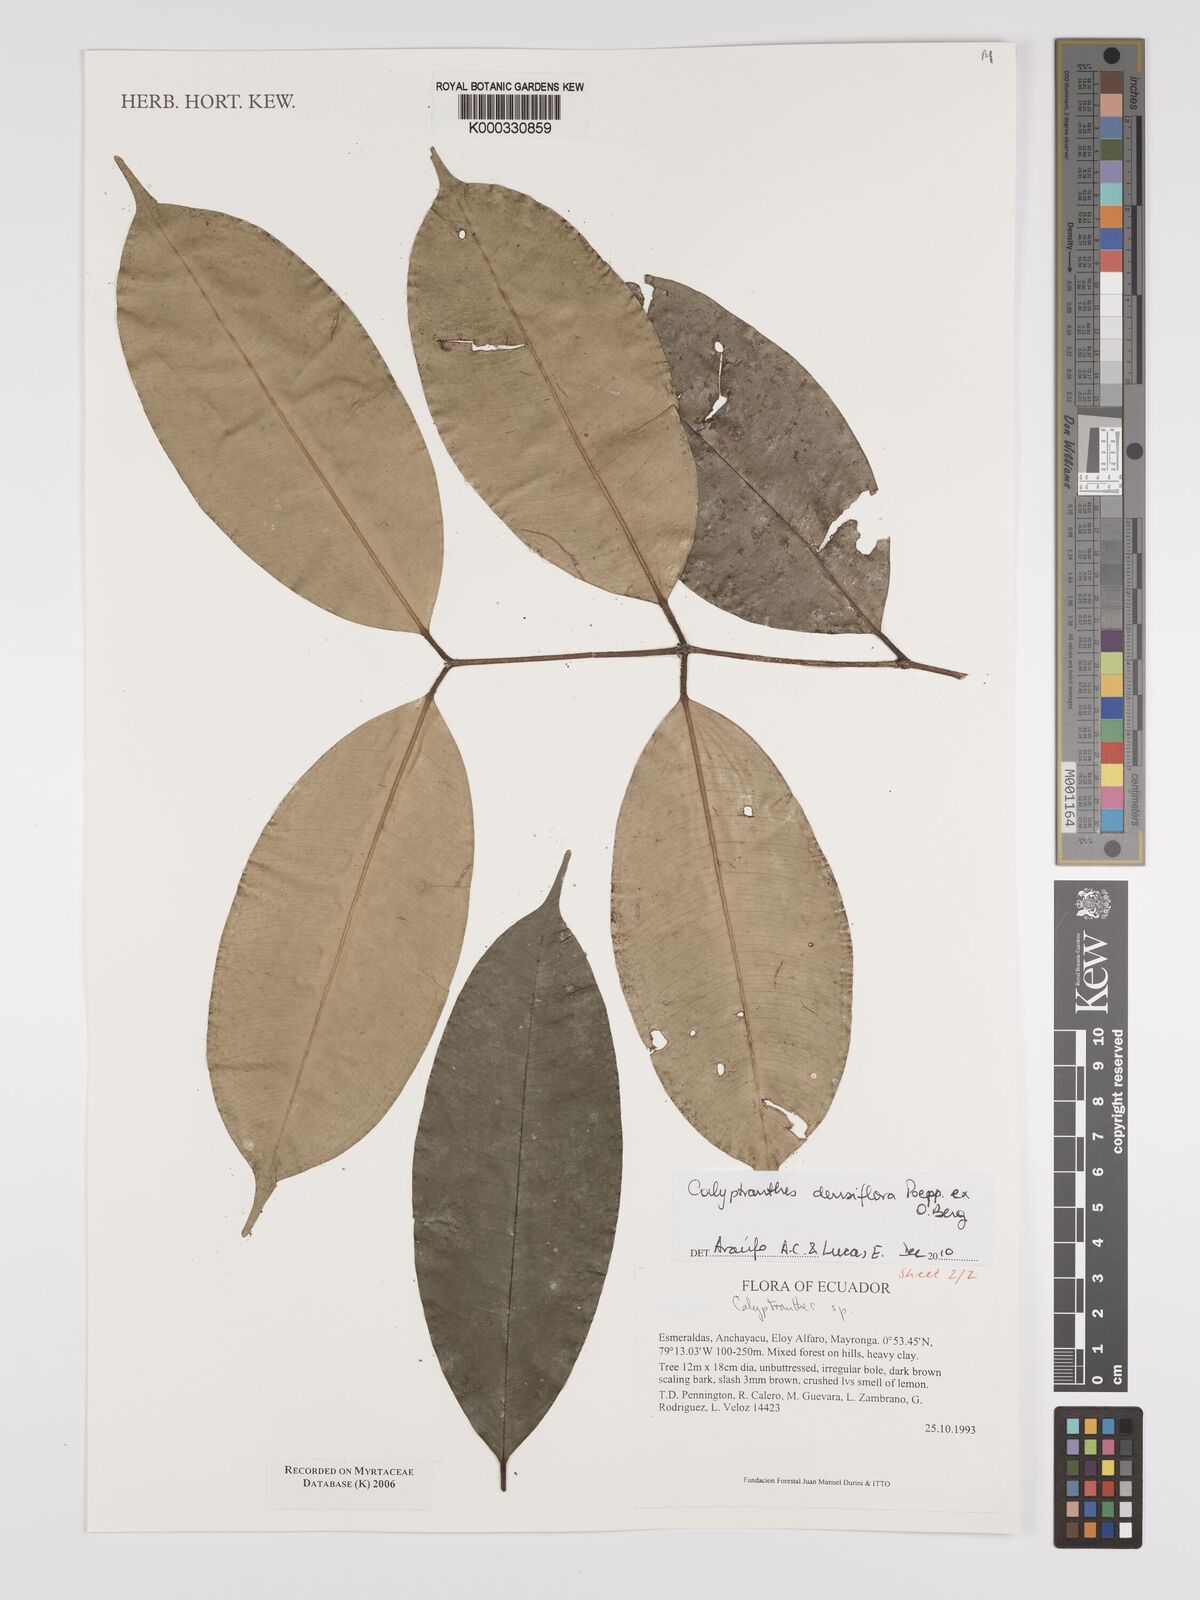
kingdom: Plantae
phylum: Tracheophyta
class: Magnoliopsida
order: Myrtales
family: Myrtaceae
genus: Calyptranthes
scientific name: Calyptranthes
